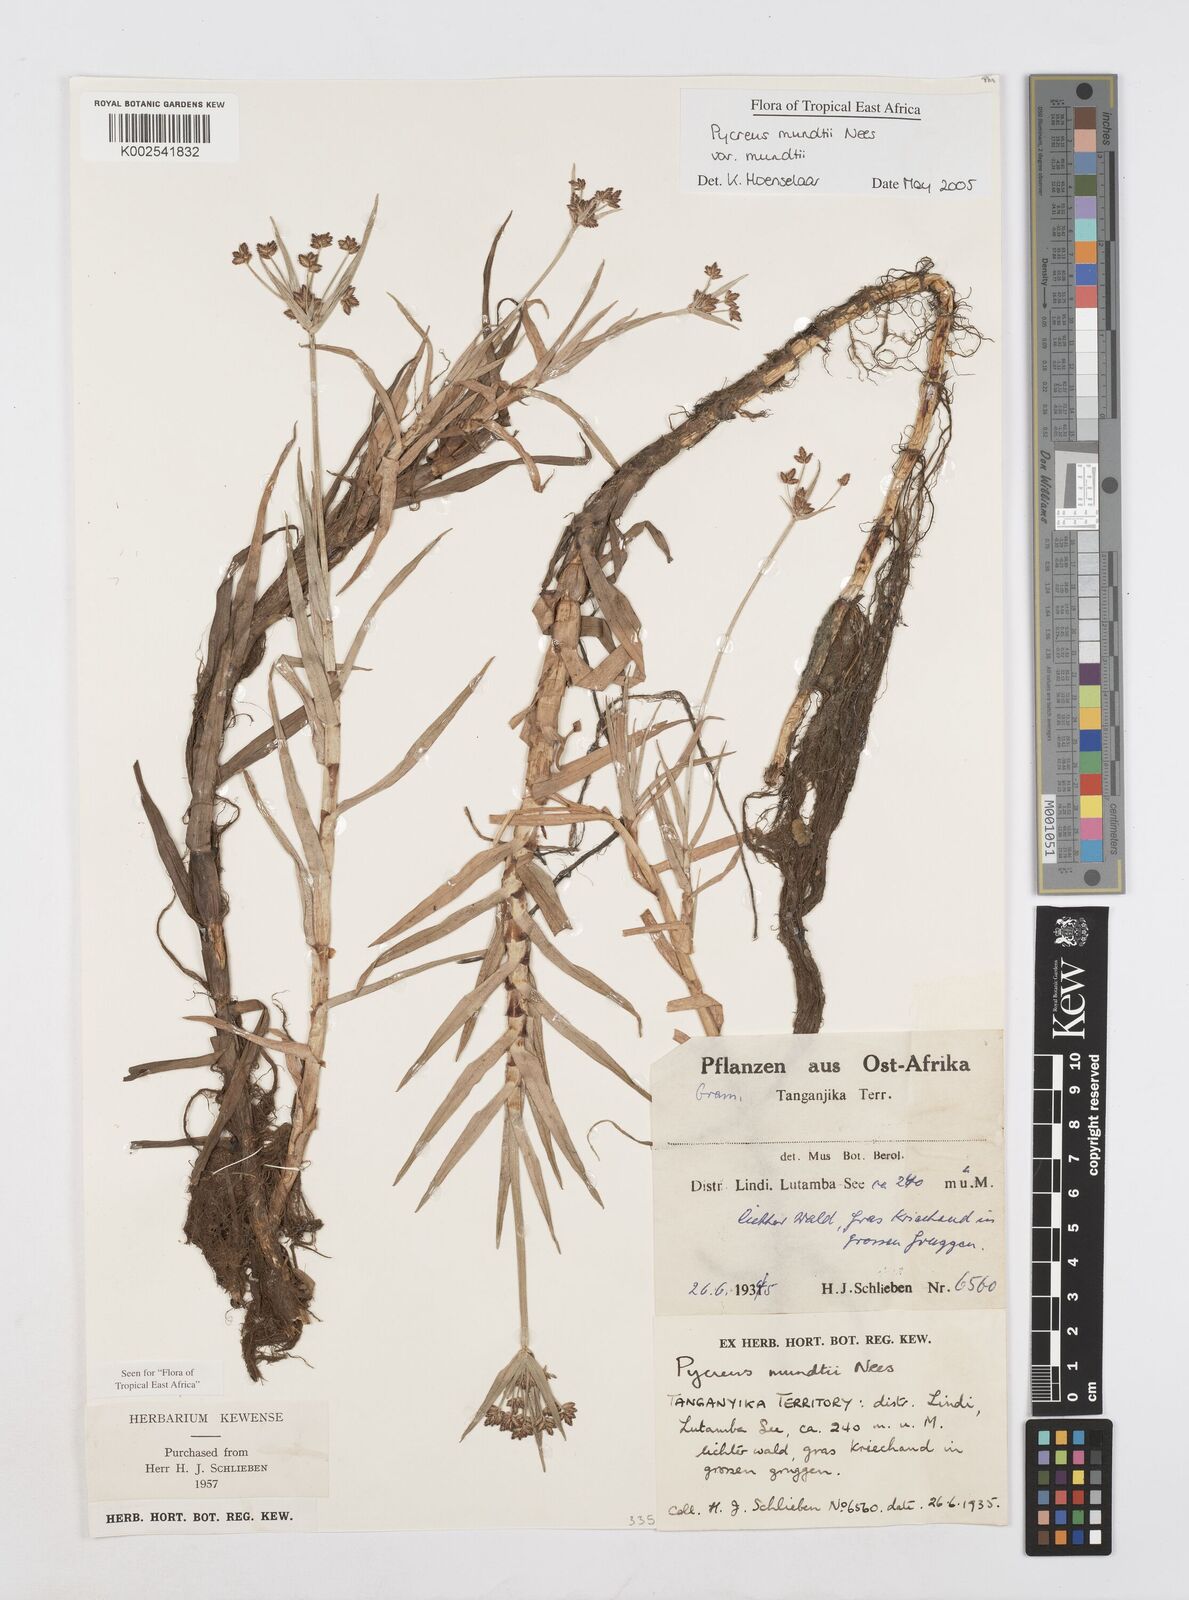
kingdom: Plantae
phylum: Tracheophyta
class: Liliopsida
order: Poales
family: Cyperaceae
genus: Cyperus
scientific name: Cyperus mundii
